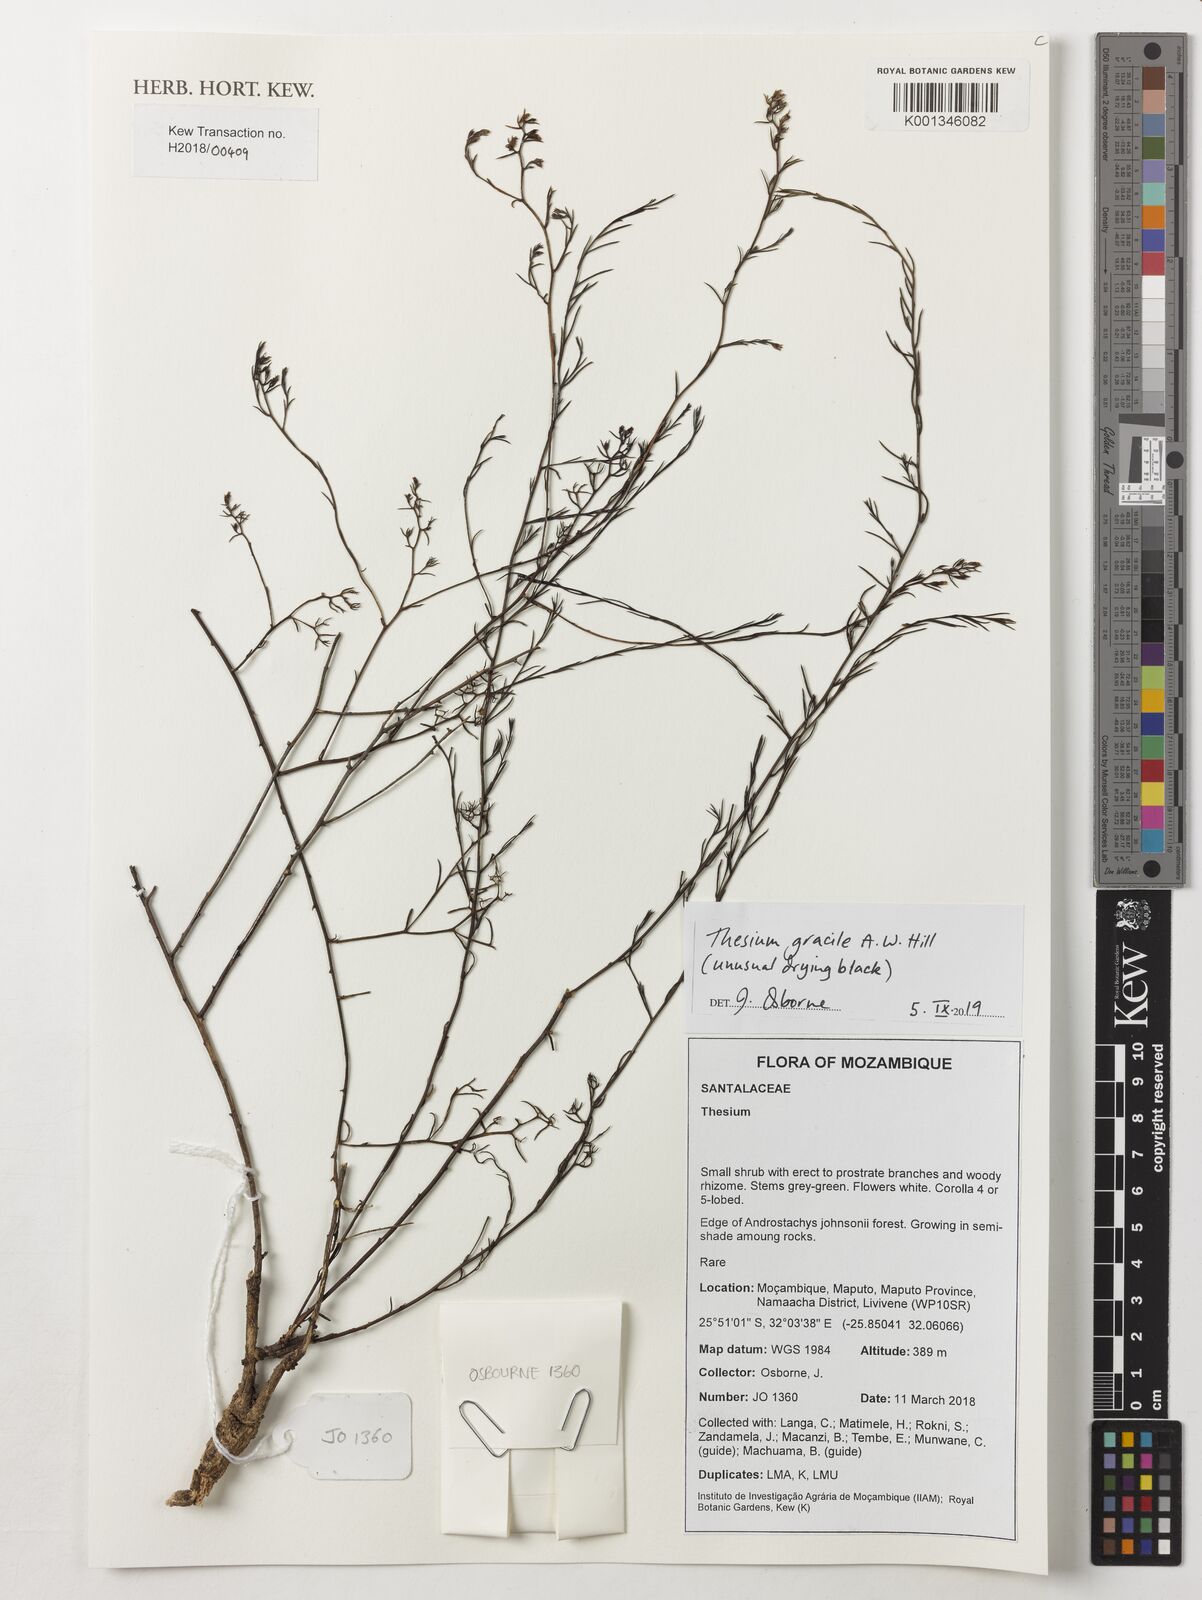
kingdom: Plantae
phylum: Tracheophyta
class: Magnoliopsida
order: Santalales
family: Thesiaceae
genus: Thesium
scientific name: Thesium gracile
